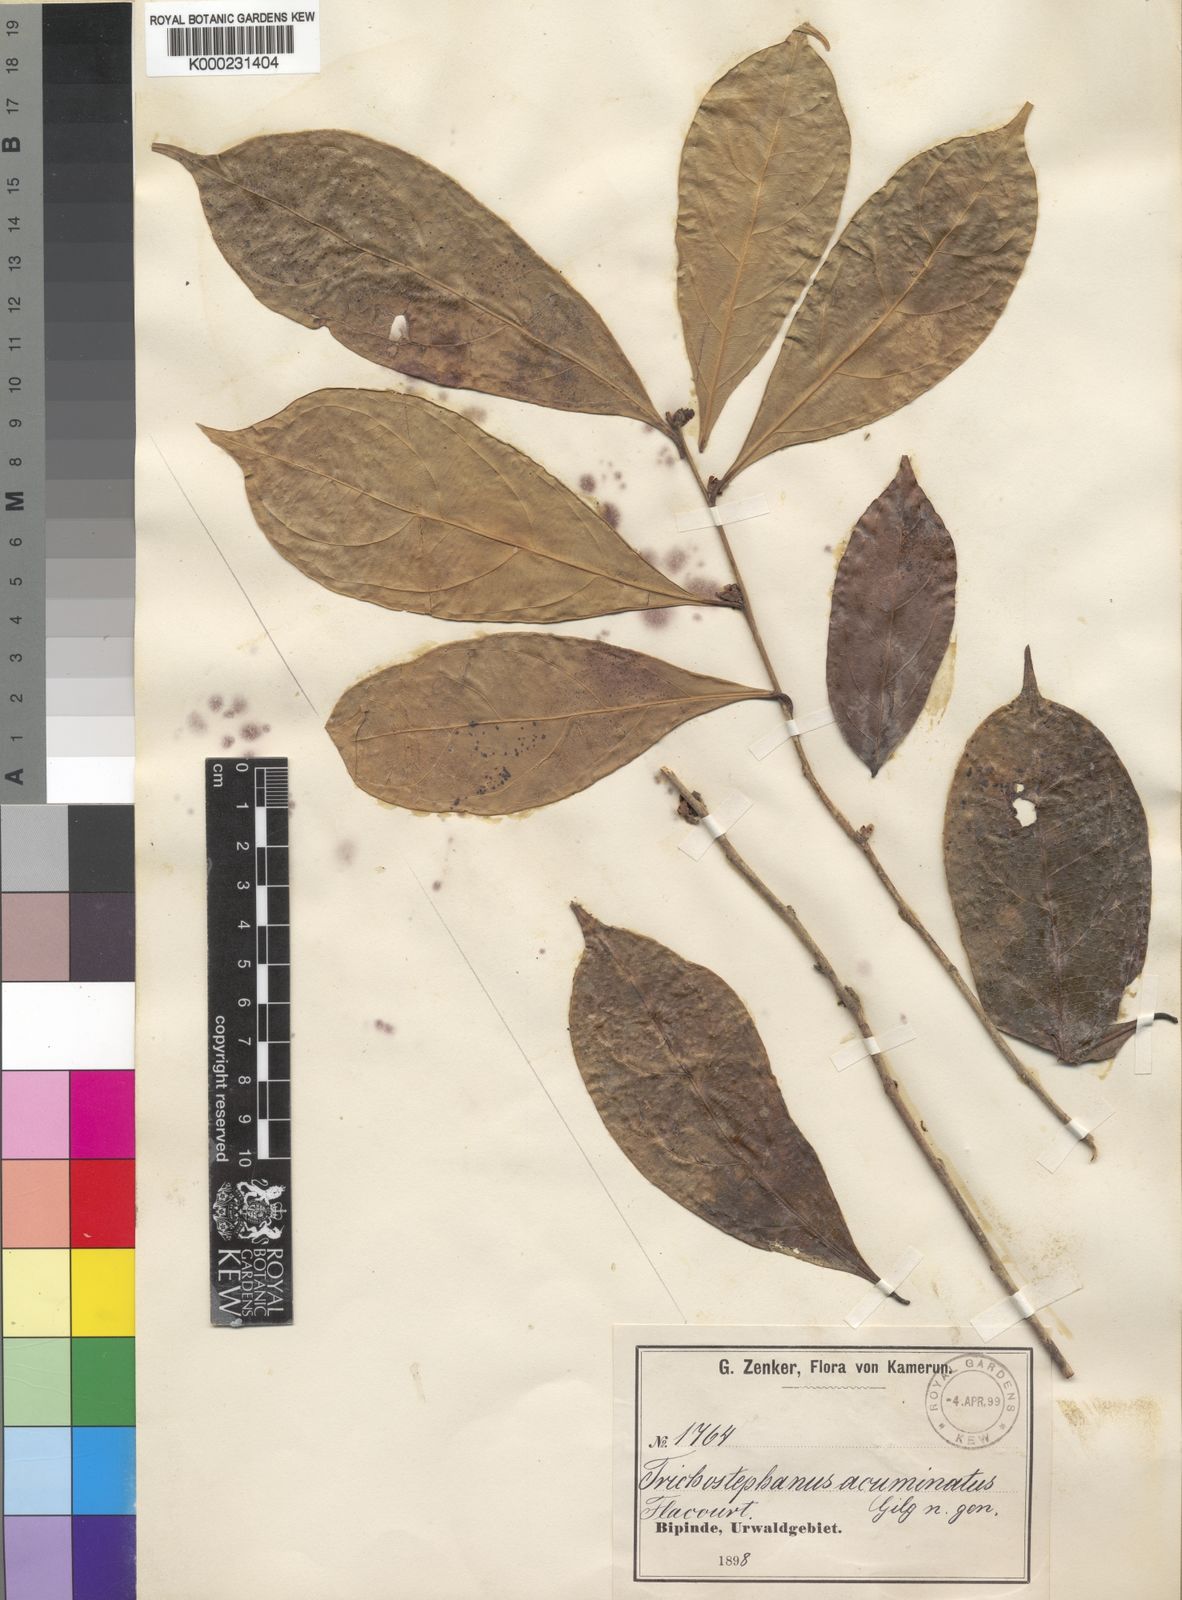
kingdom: Plantae
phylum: Tracheophyta
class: Magnoliopsida
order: Malpighiales
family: Salicaceae
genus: Trichostephanus
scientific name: Trichostephanus acuminatus
